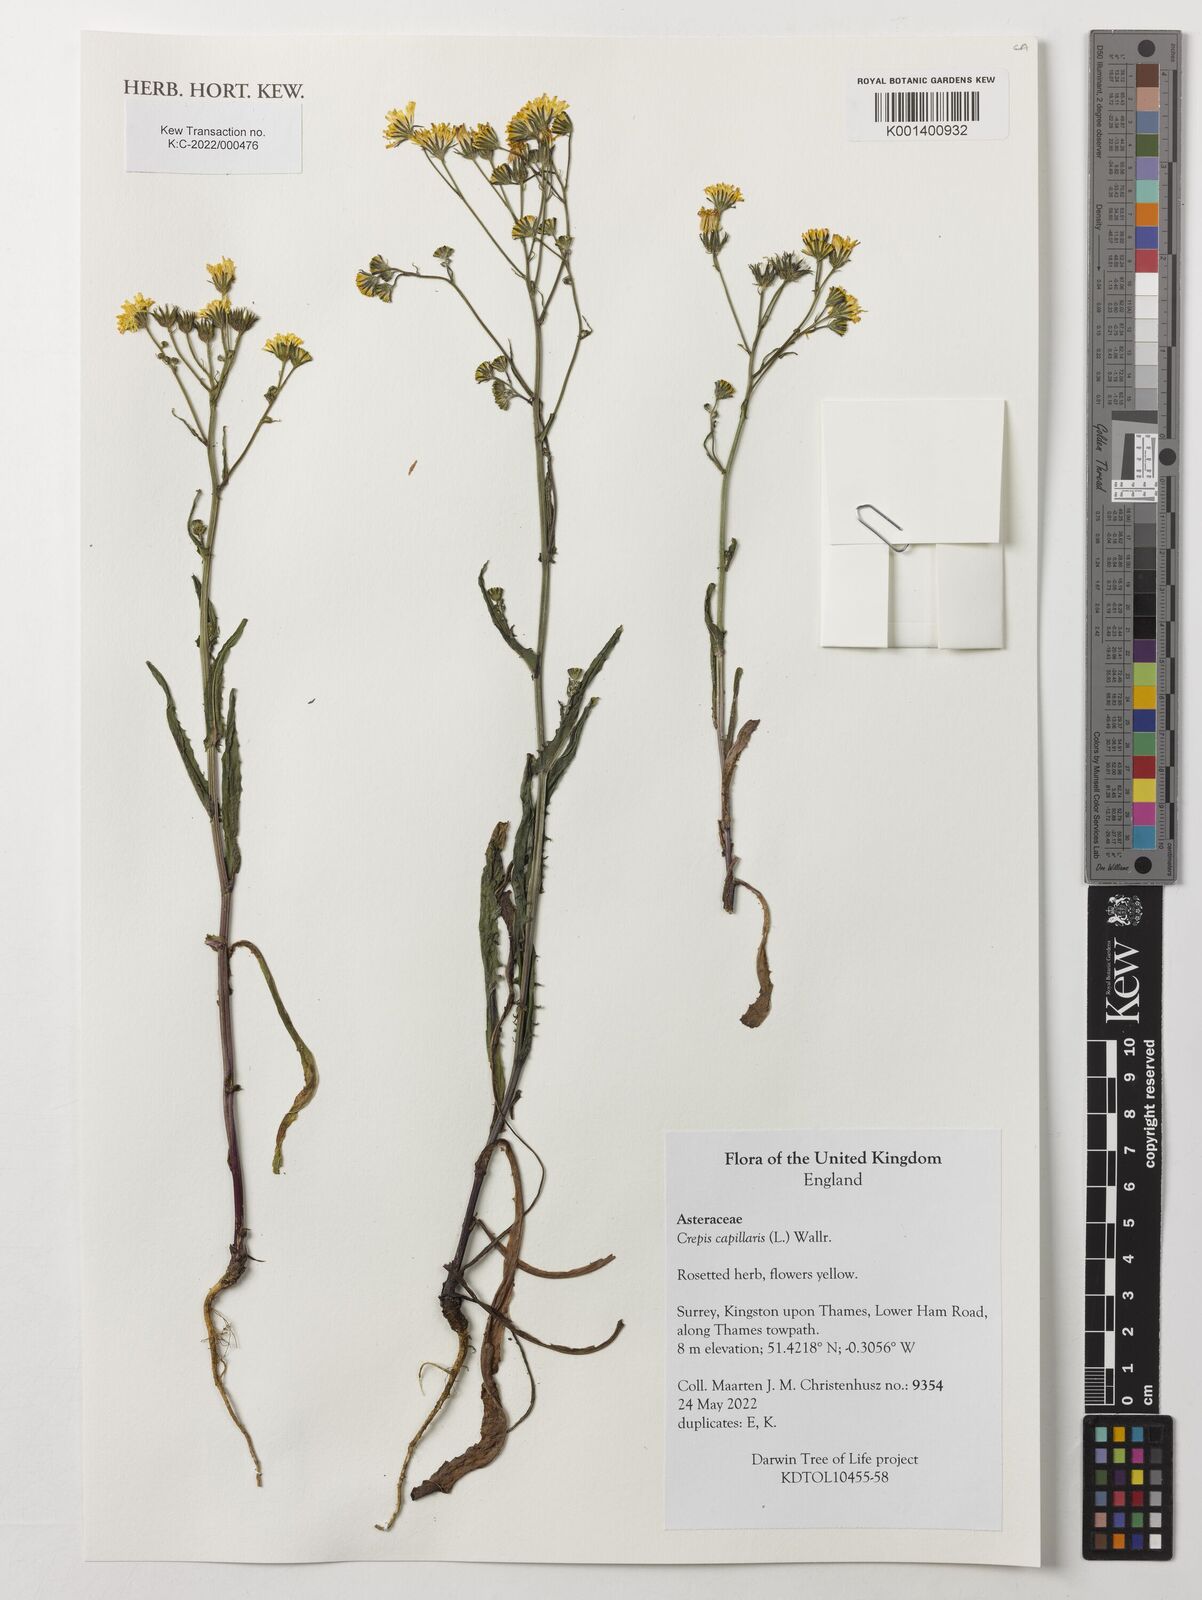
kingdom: Plantae
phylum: Tracheophyta
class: Magnoliopsida
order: Asterales
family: Asteraceae
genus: Crepis
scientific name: Crepis capillaris
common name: Smooth hawksbeard
